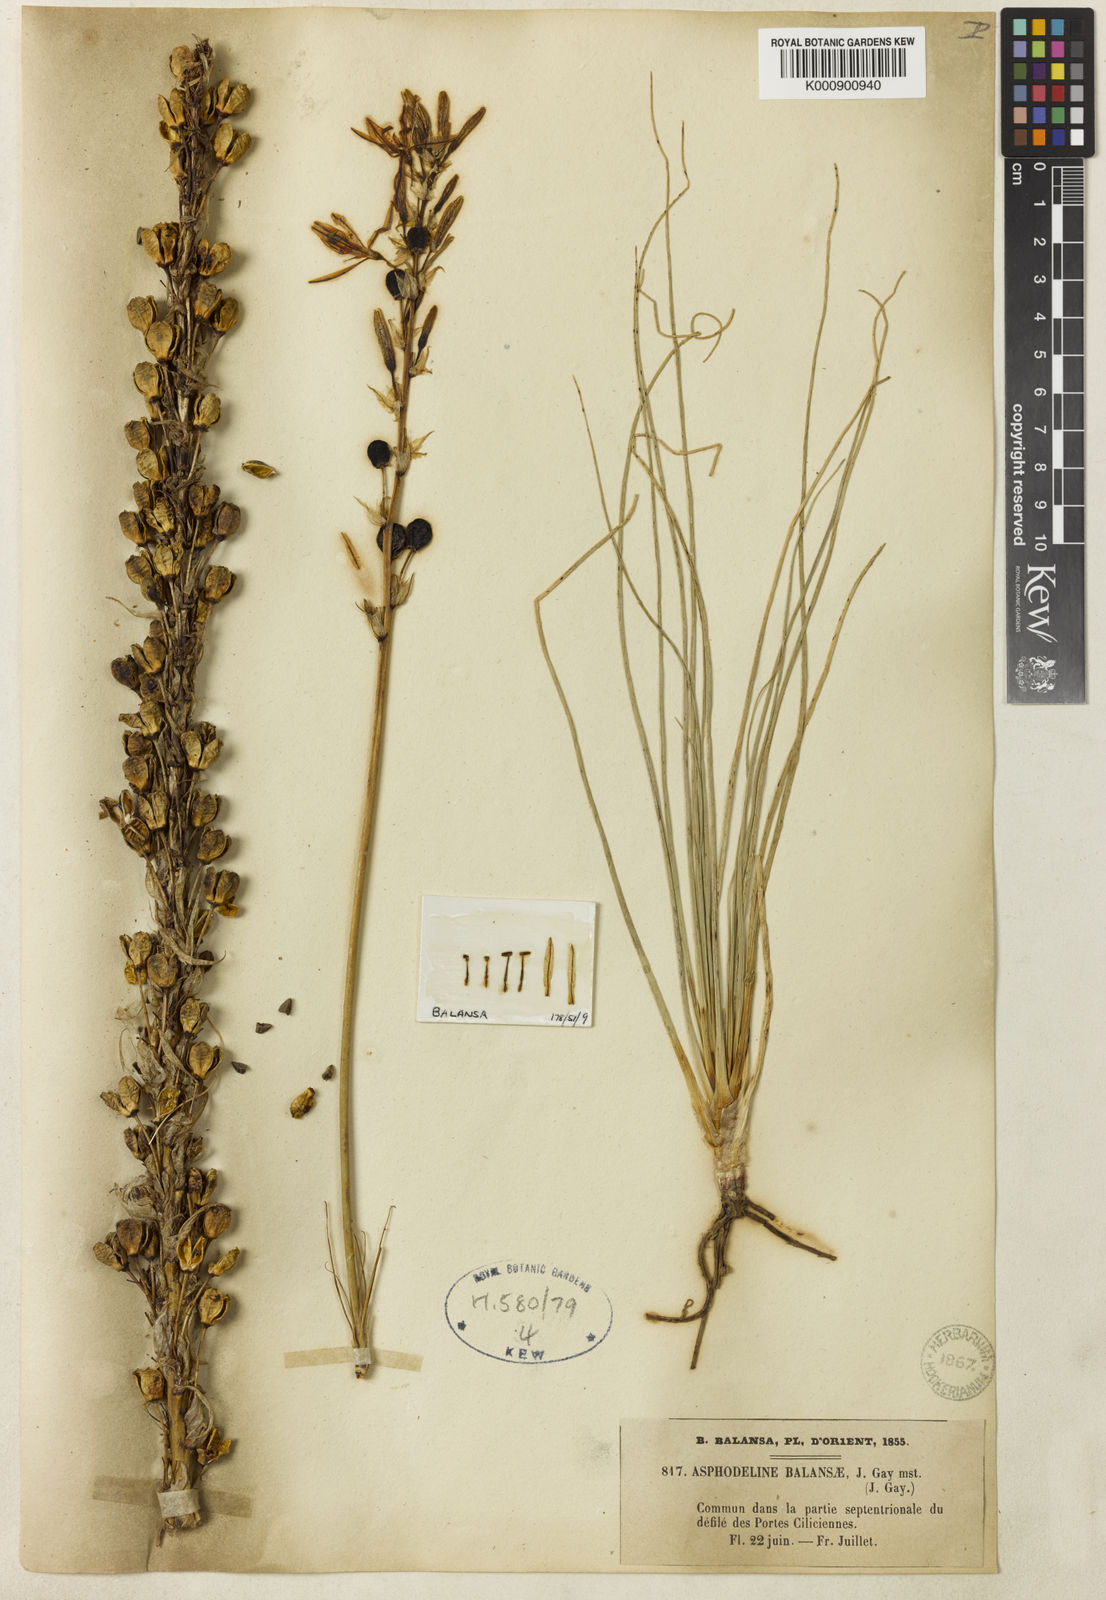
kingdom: Plantae
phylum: Tracheophyta
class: Liliopsida
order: Asparagales
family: Asphodelaceae
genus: Asphodeline
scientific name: Asphodeline damascena
